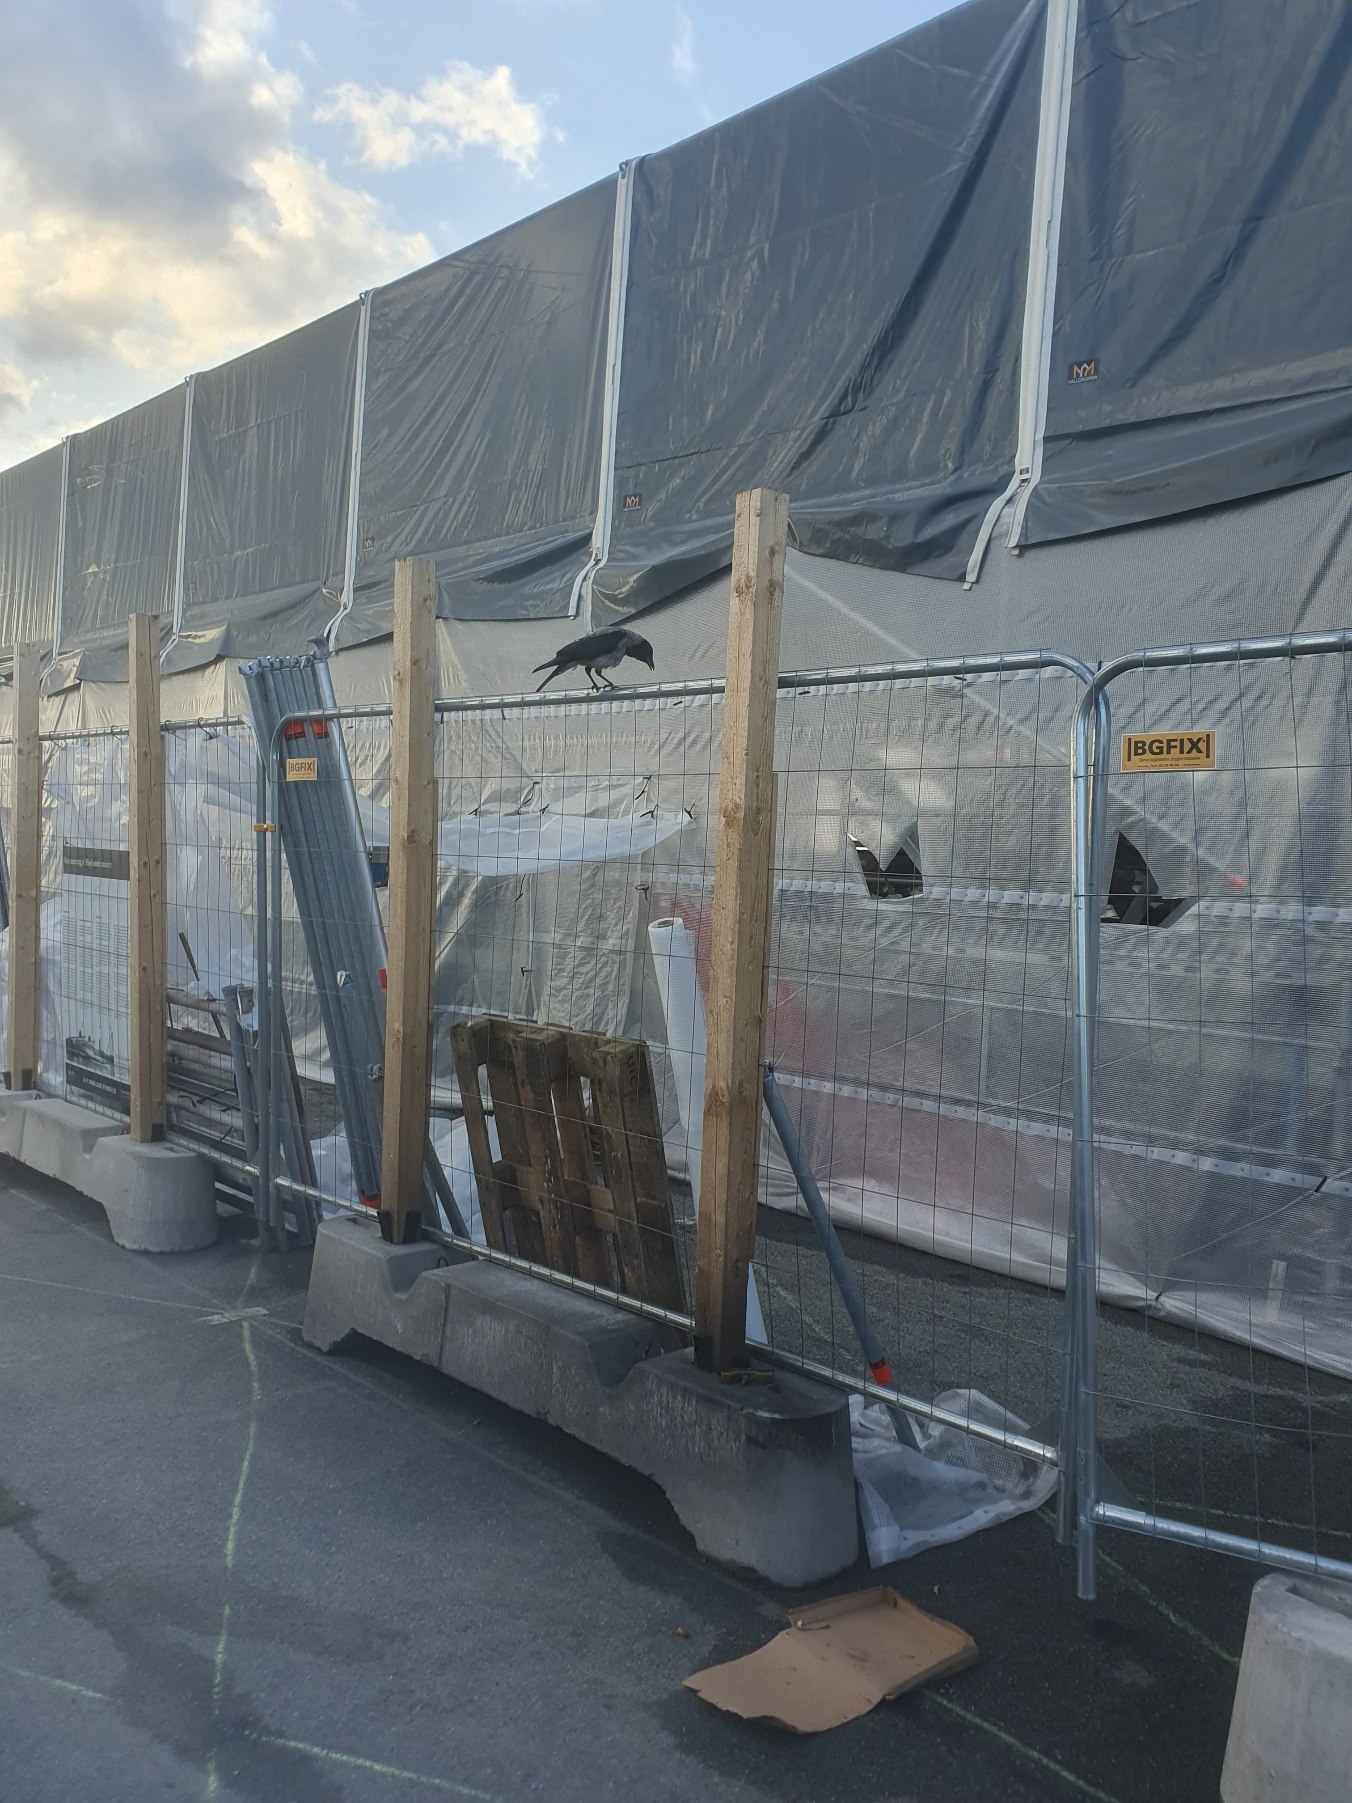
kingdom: Animalia
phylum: Chordata
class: Aves
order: Passeriformes
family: Corvidae
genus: Corvus
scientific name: Corvus cornix
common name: Gråkrage
